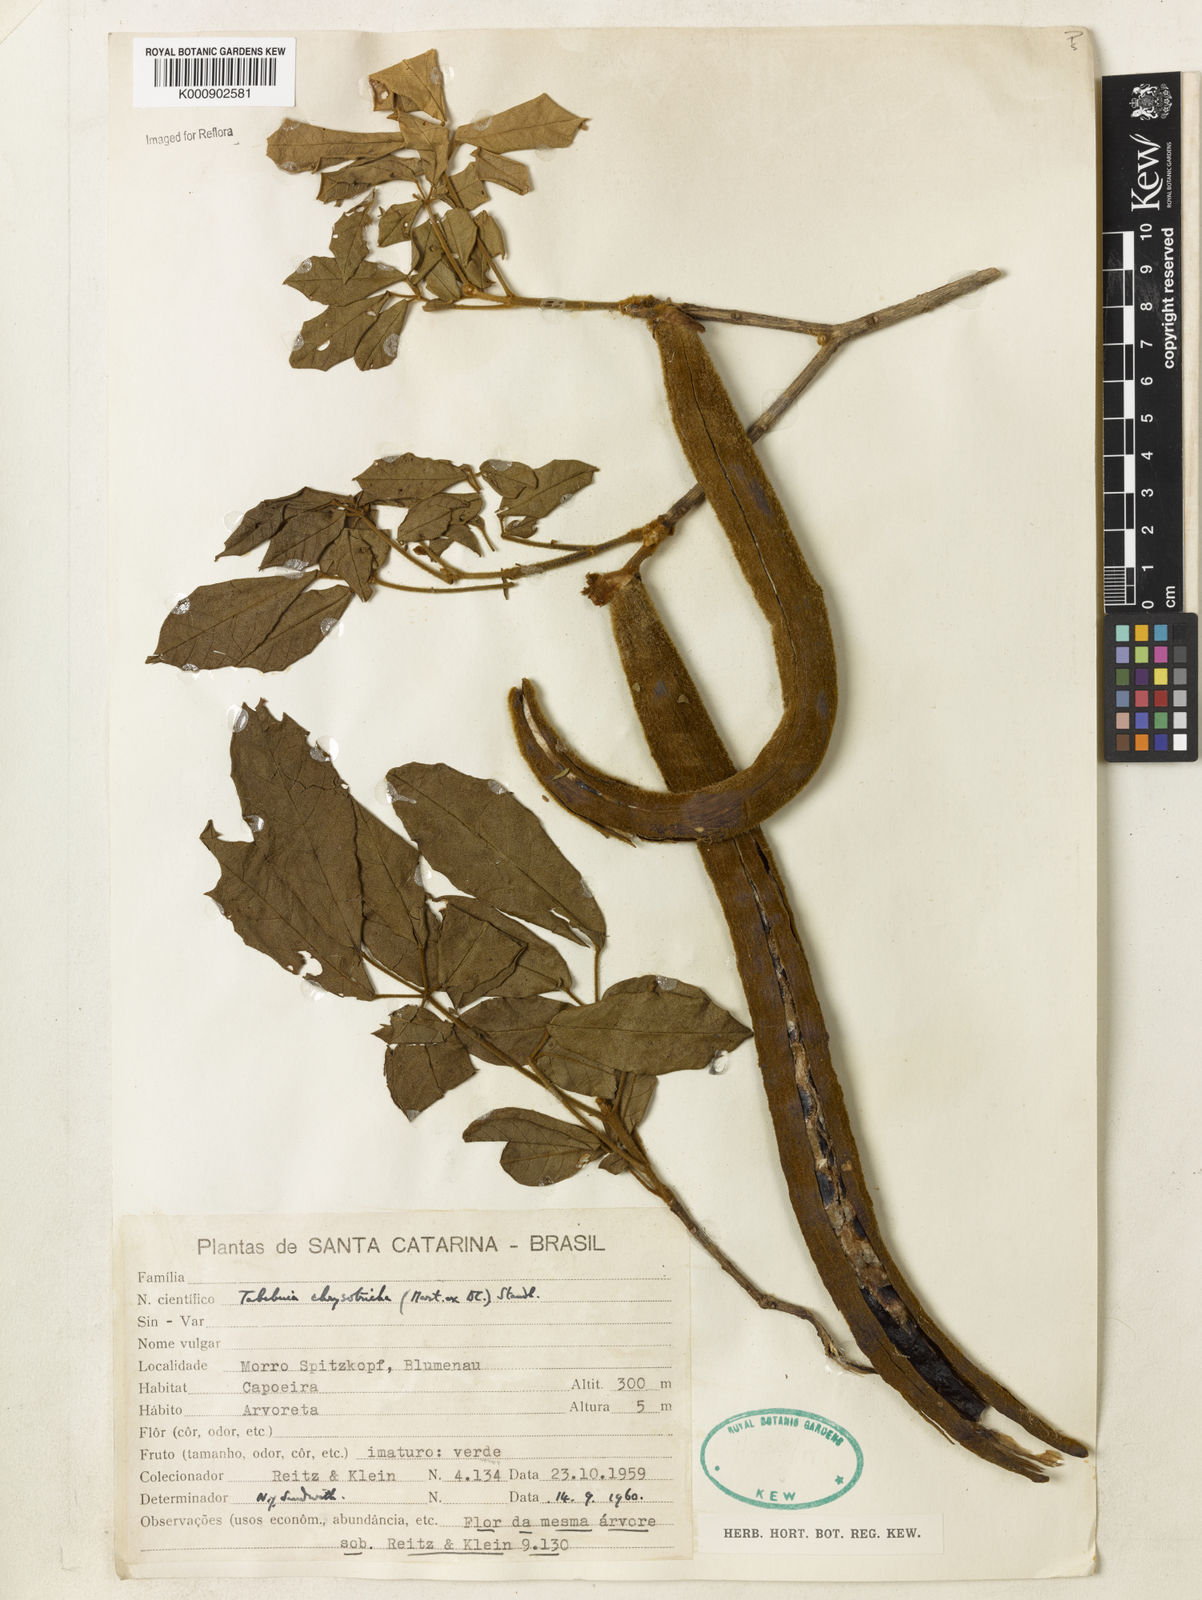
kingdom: Plantae
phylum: Tracheophyta
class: Magnoliopsida
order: Lamiales
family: Bignoniaceae
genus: Handroanthus
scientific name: Handroanthus chrysotrichus
